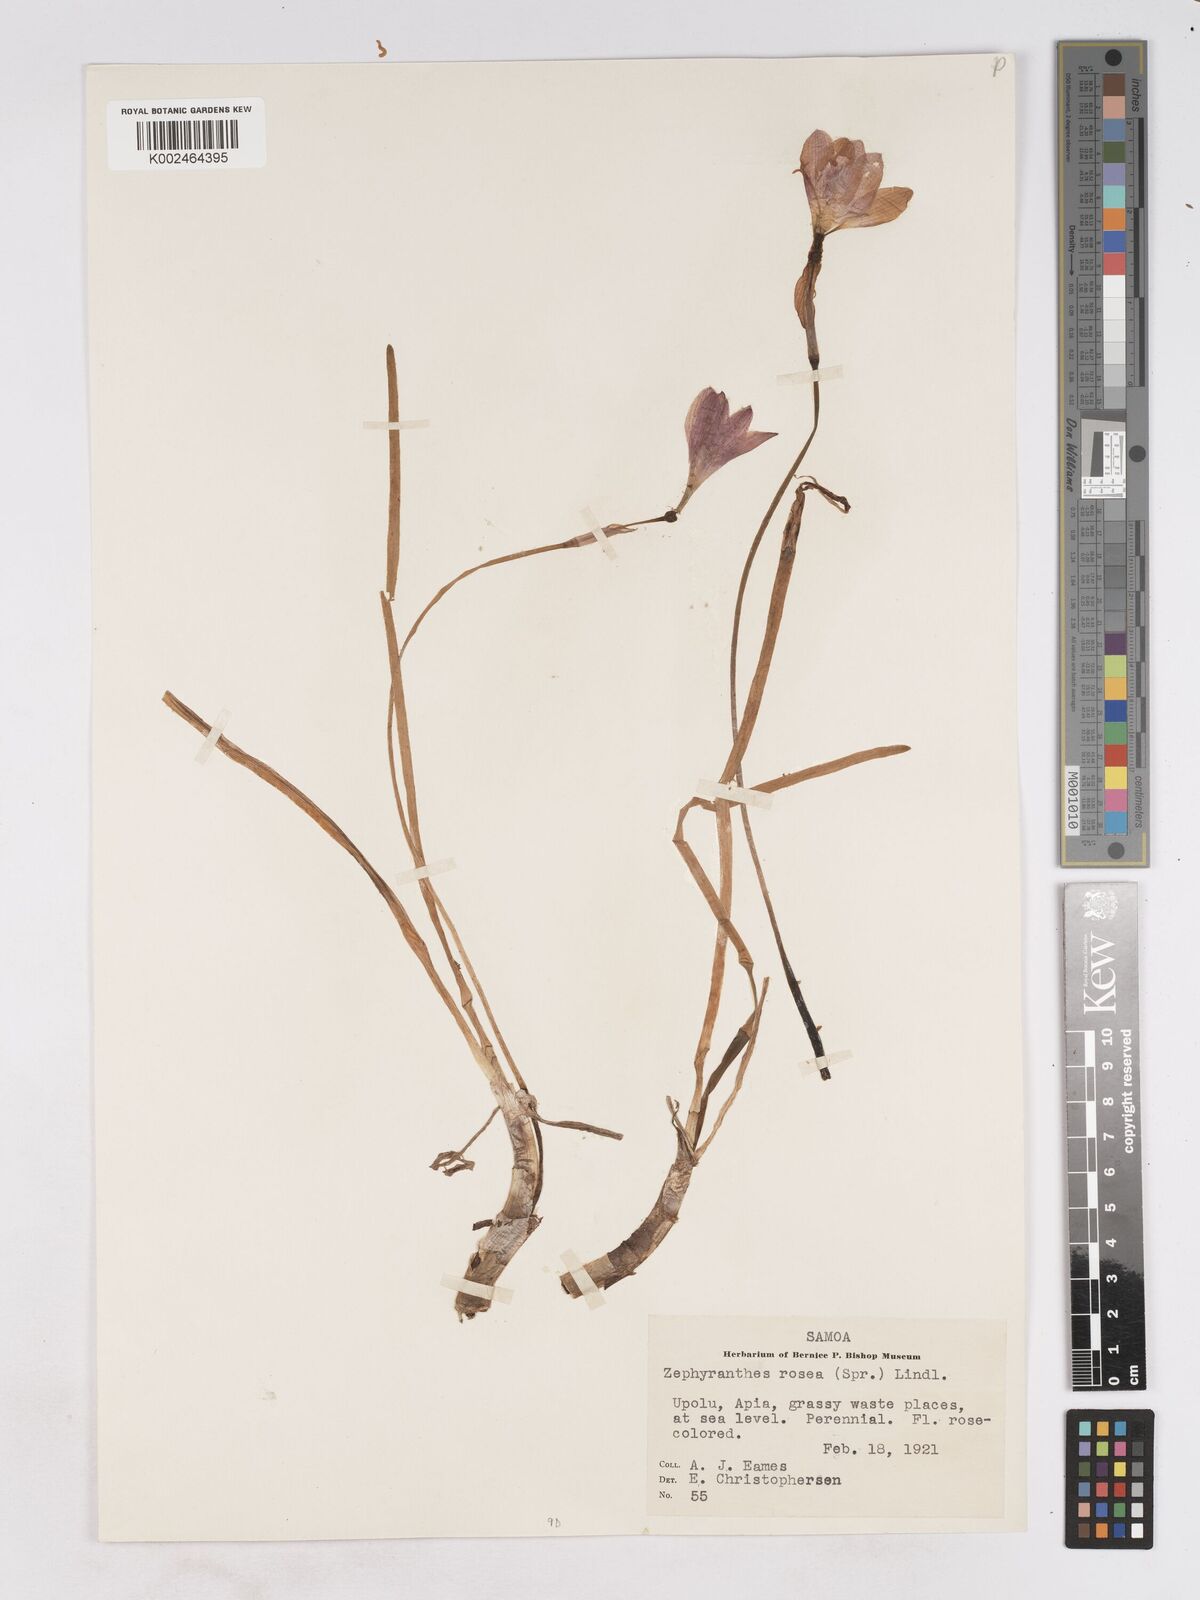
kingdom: Plantae
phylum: Tracheophyta
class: Liliopsida
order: Asparagales
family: Amaryllidaceae
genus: Zephyranthes
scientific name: Zephyranthes rosea
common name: Cuban zephyrlily
